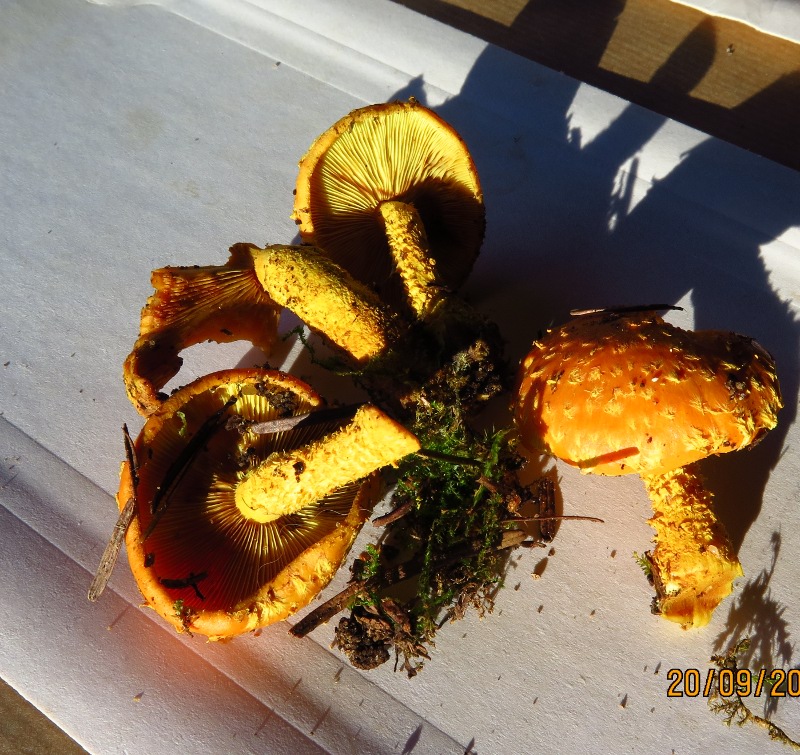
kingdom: Fungi
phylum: Basidiomycota
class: Agaricomycetes
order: Agaricales
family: Strophariaceae
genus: Pholiota
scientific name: Pholiota flammans
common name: flamme-skælhat
